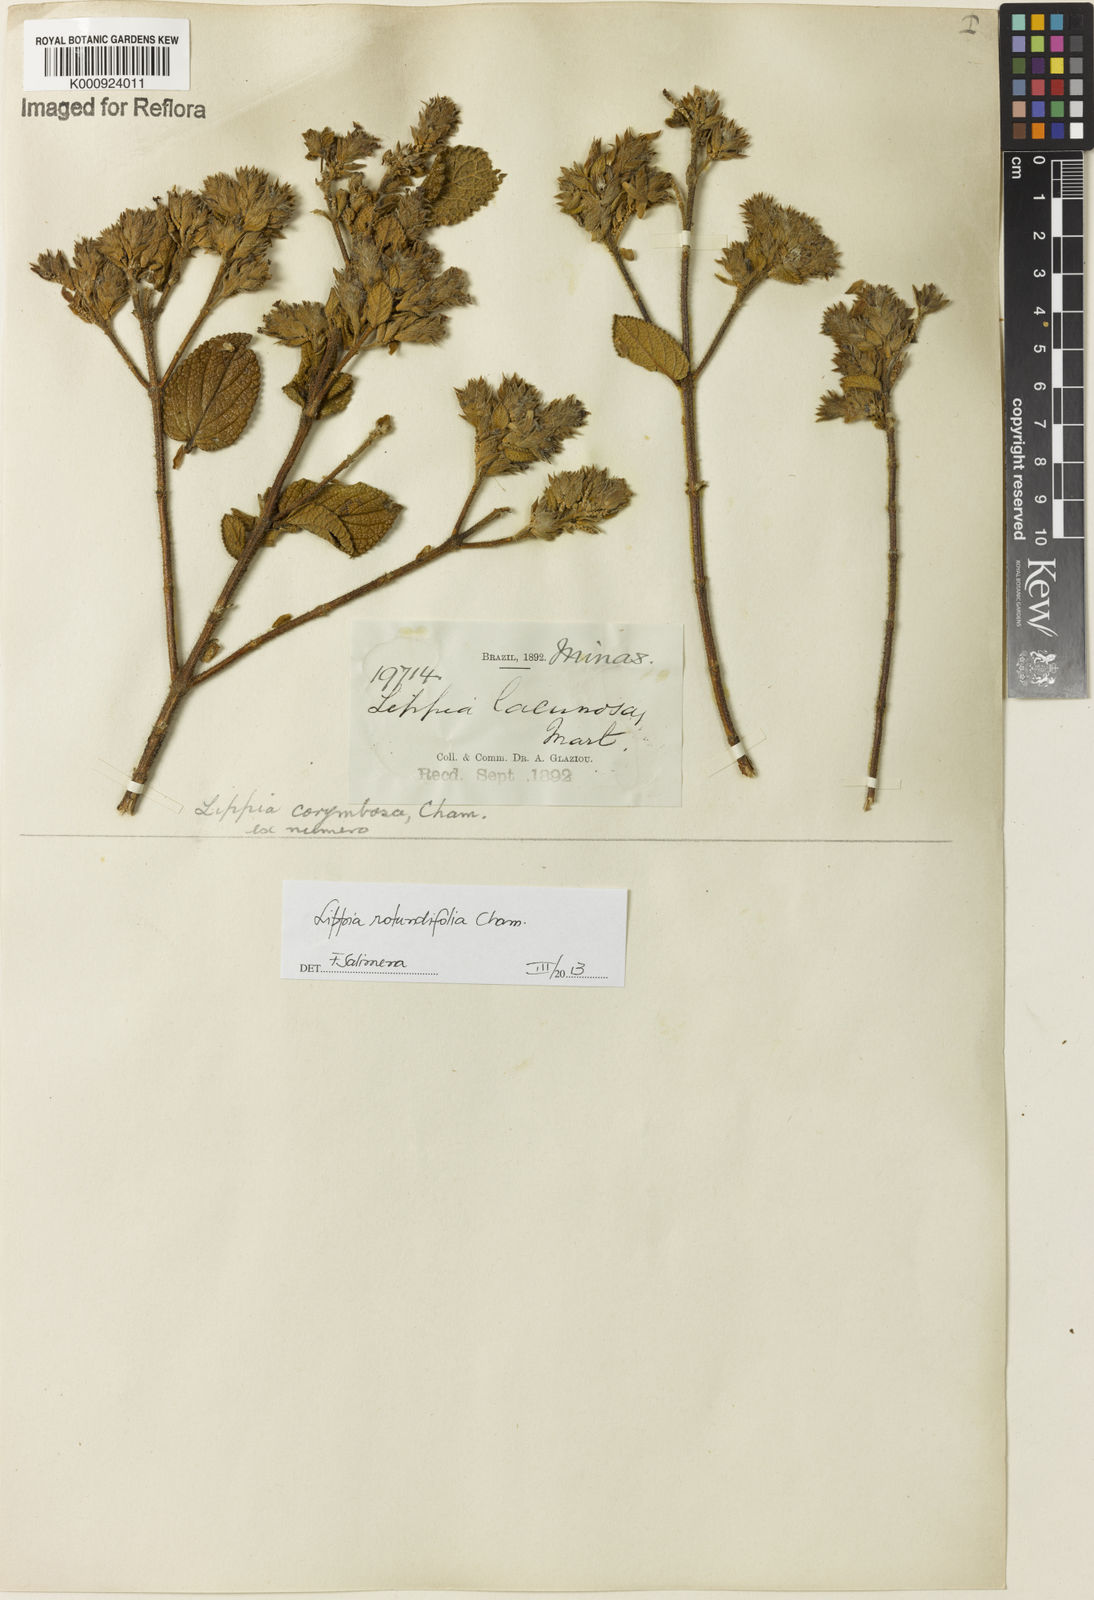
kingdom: Plantae
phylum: Tracheophyta
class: Magnoliopsida
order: Lamiales
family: Verbenaceae
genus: Lippia
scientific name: Lippia rotundifolia
